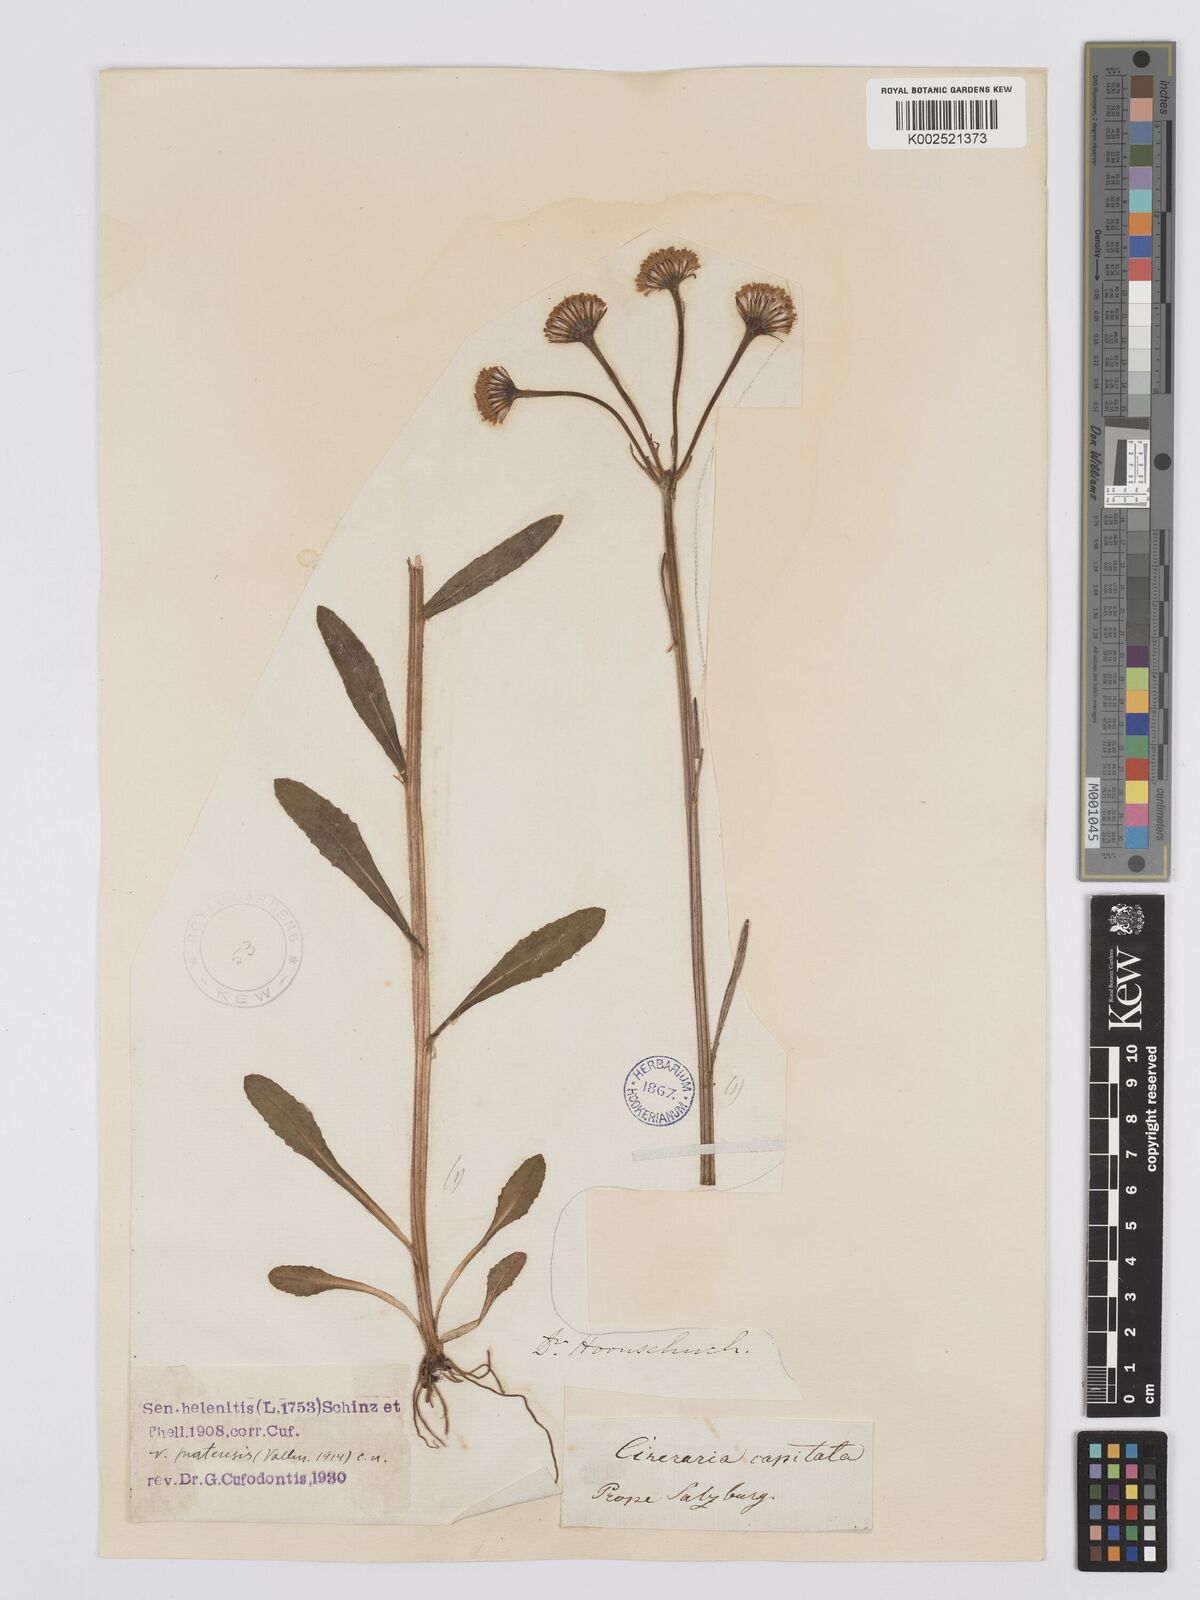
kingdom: Plantae
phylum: Tracheophyta
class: Magnoliopsida
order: Asterales
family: Asteraceae
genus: Tephroseris
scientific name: Tephroseris helenitis
